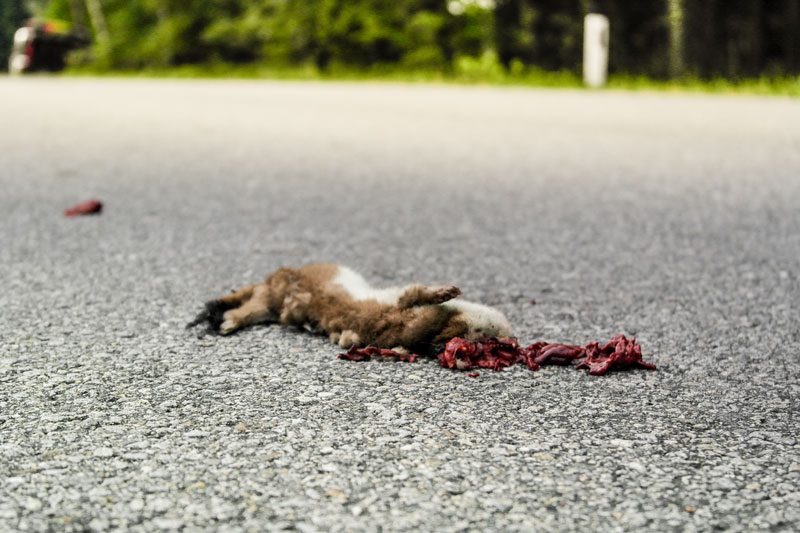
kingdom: Animalia
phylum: Chordata
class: Mammalia
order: Carnivora
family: Mustelidae
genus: Mustela
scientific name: Mustela nivalis
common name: Least weasel
